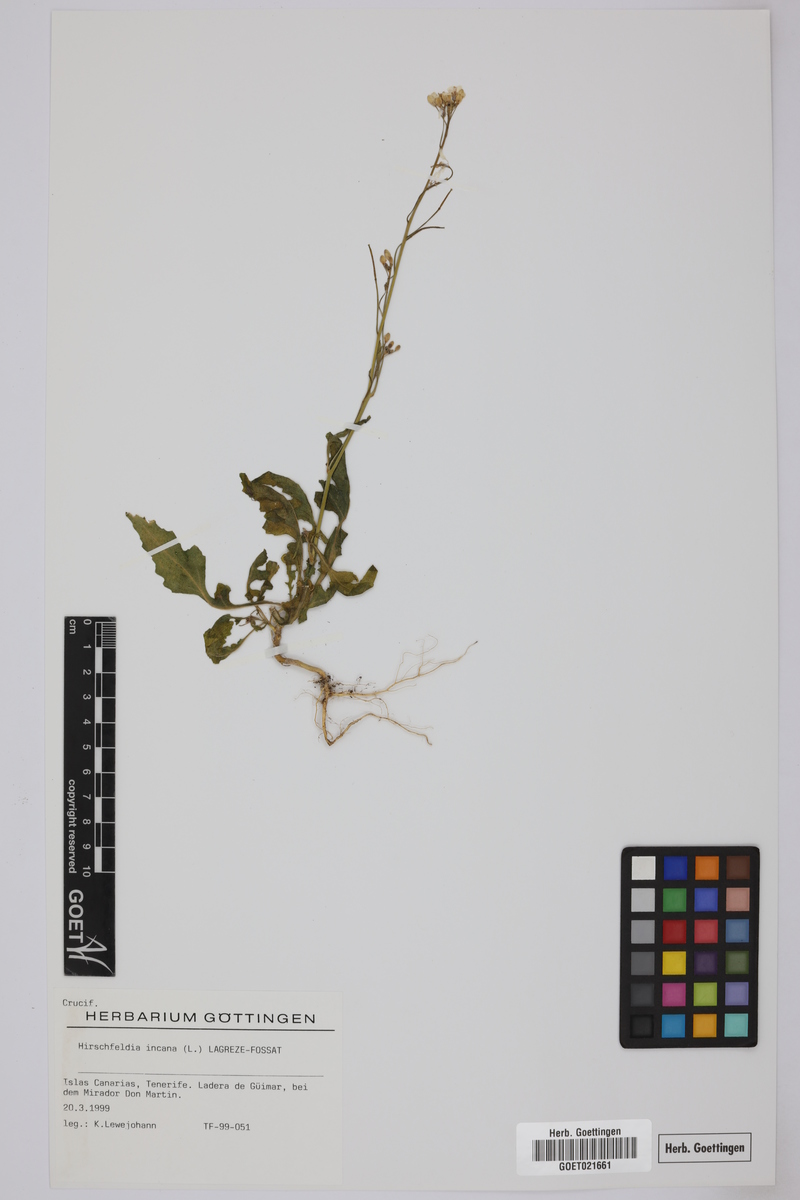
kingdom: Plantae
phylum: Tracheophyta
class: Magnoliopsida
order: Brassicales
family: Brassicaceae
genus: Hirschfeldia
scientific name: Hirschfeldia incana
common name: Hoary mustard
